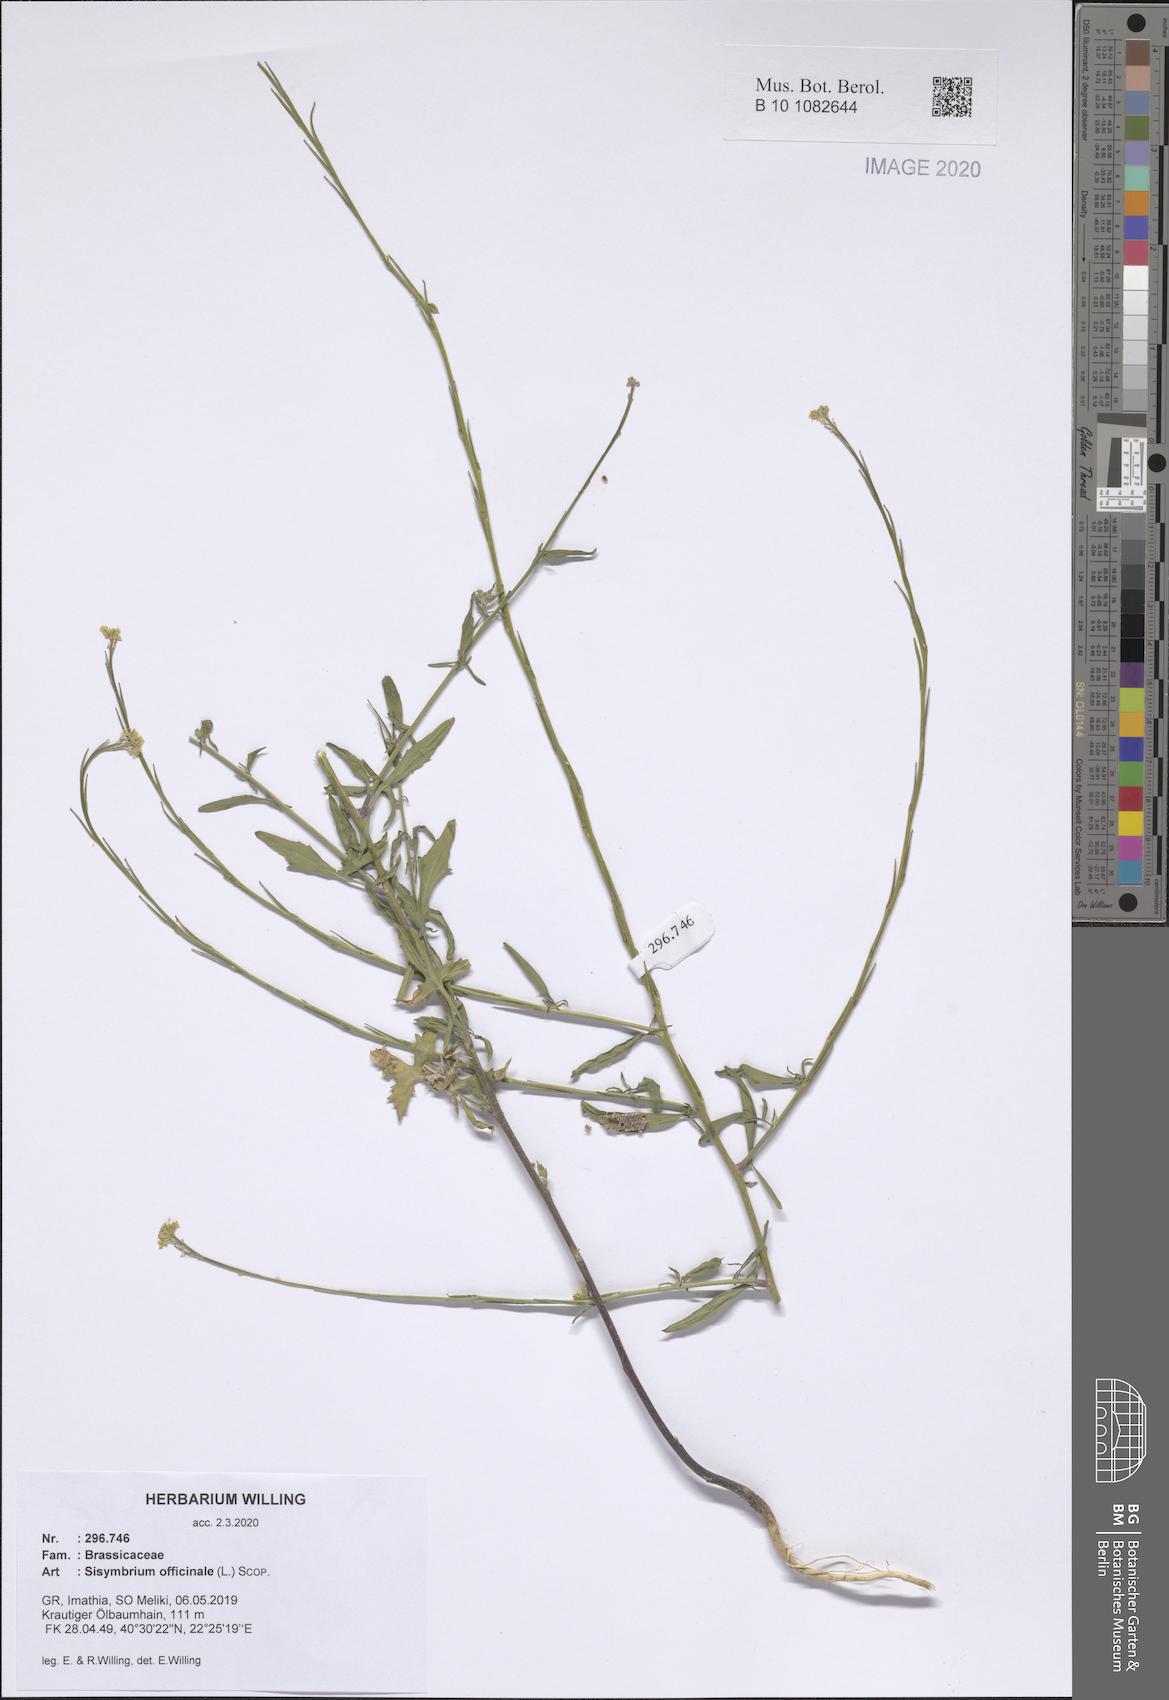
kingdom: Plantae
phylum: Tracheophyta
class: Magnoliopsida
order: Brassicales
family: Brassicaceae
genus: Sisymbrium
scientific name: Sisymbrium officinale
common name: Hedge mustard
